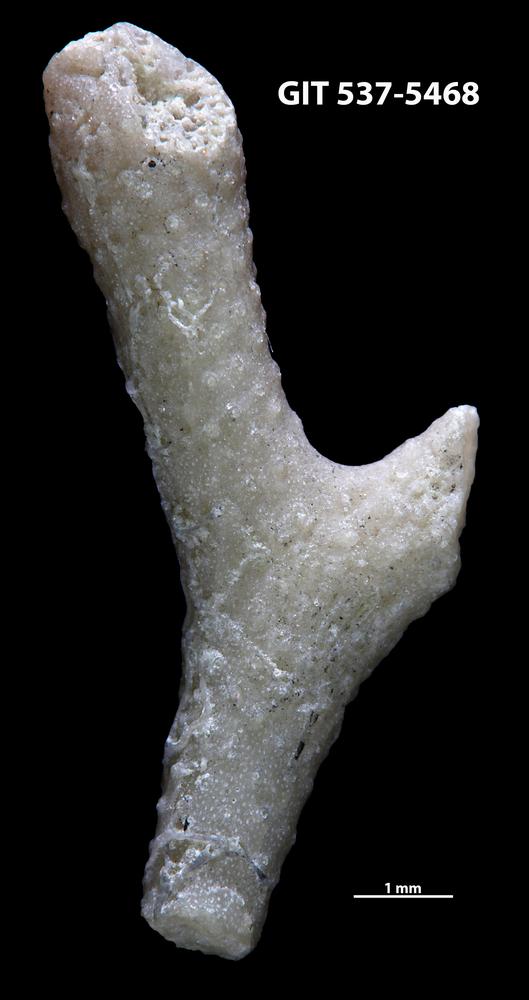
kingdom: Animalia
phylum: Bryozoa
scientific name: Bryozoa
